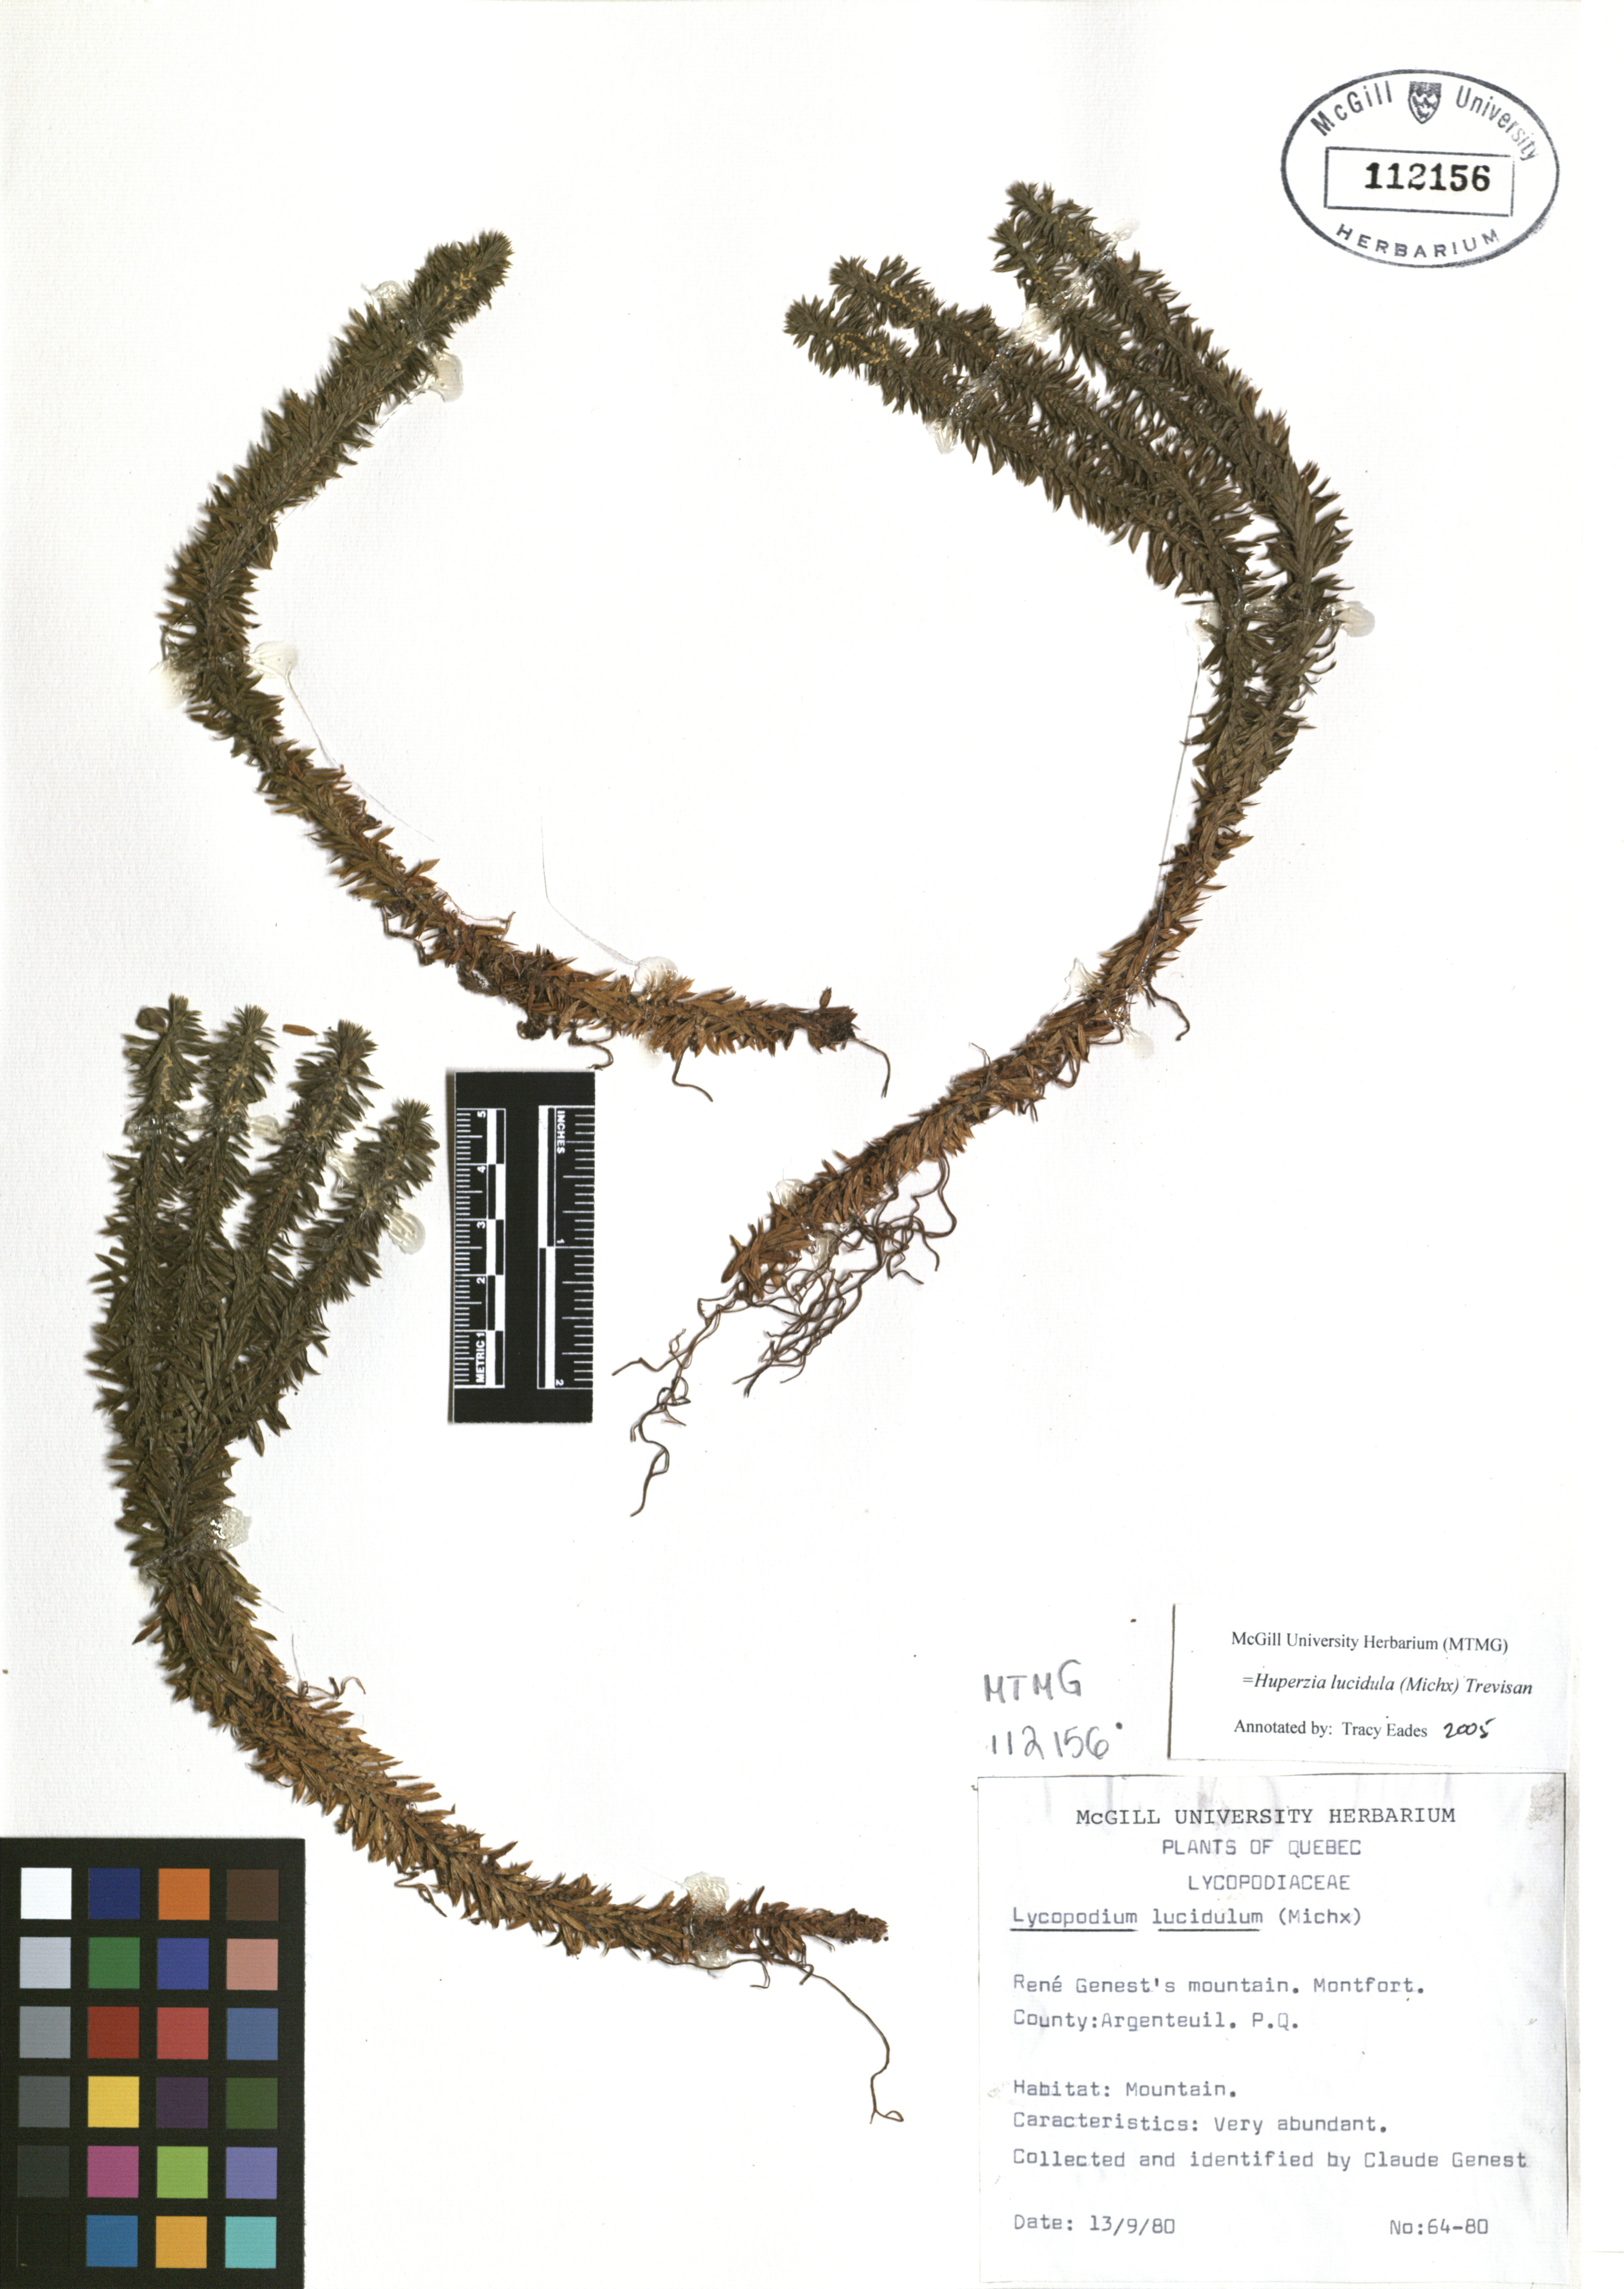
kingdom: Plantae
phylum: Tracheophyta
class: Lycopodiopsida
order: Lycopodiales
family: Lycopodiaceae
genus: Huperzia
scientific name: Huperzia lucidula
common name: Shining clubmoss
